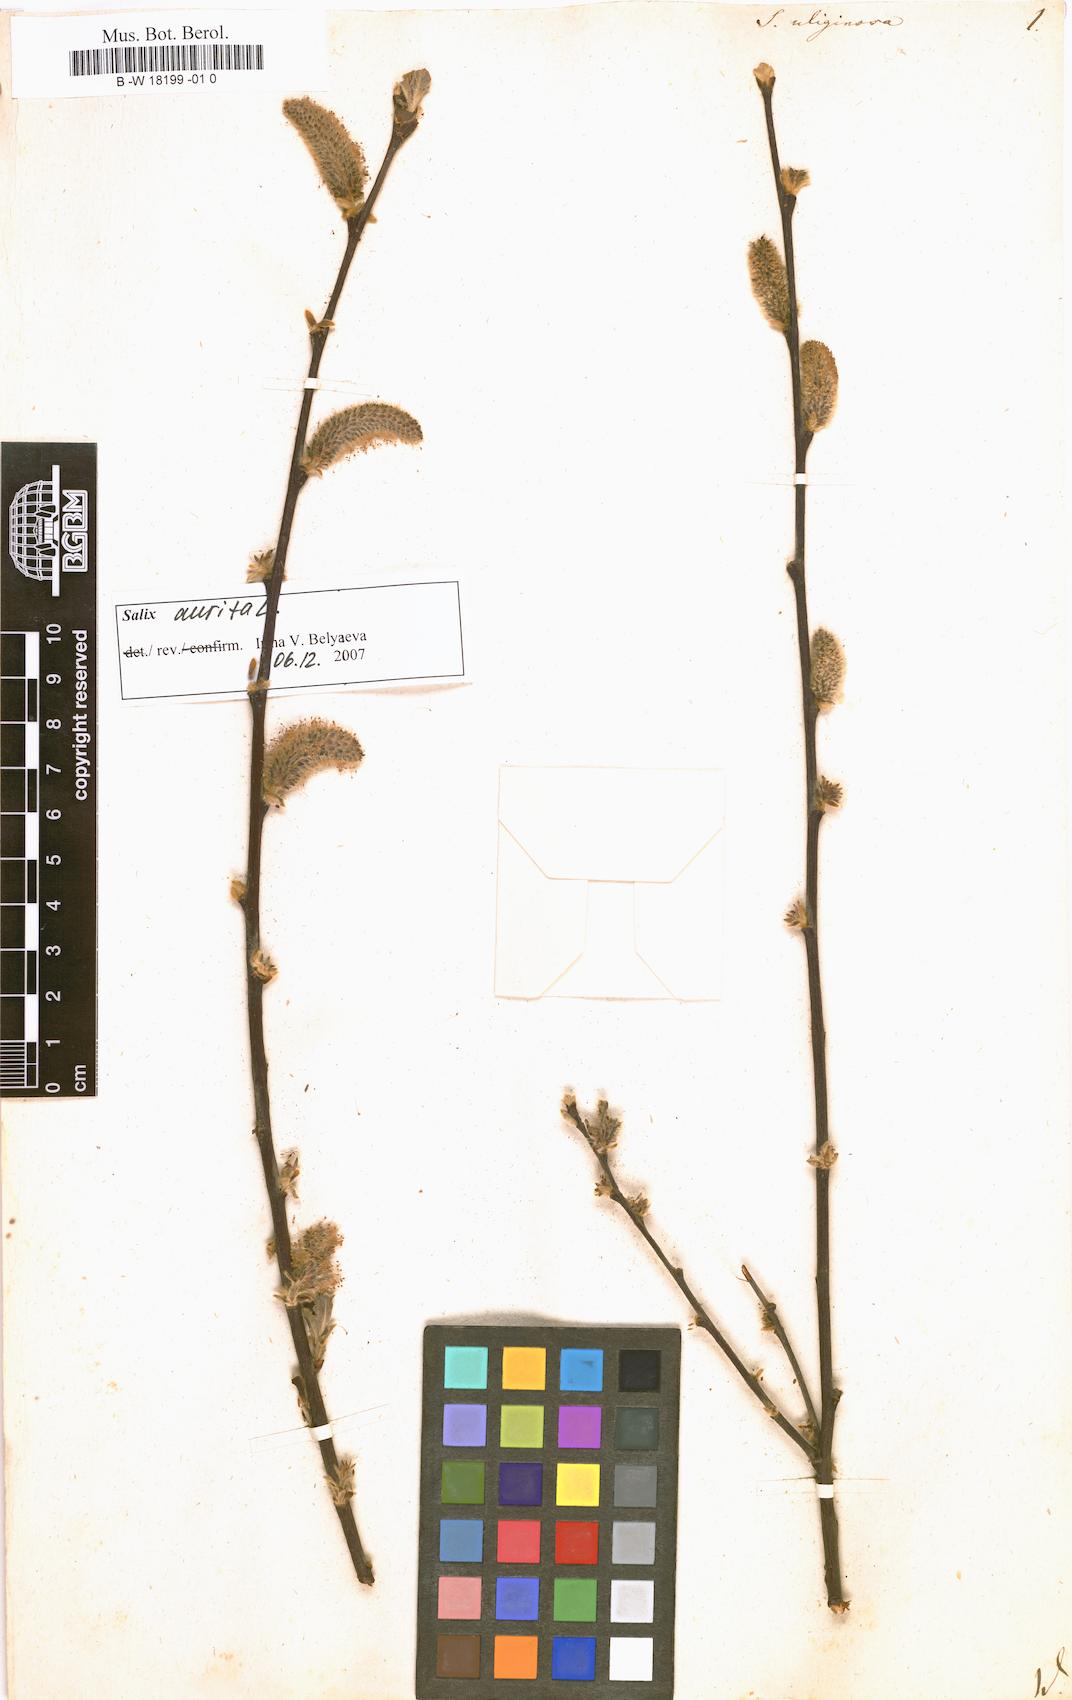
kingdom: Plantae
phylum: Tracheophyta
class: Magnoliopsida
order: Malpighiales
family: Salicaceae
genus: Salix
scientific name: Salix
